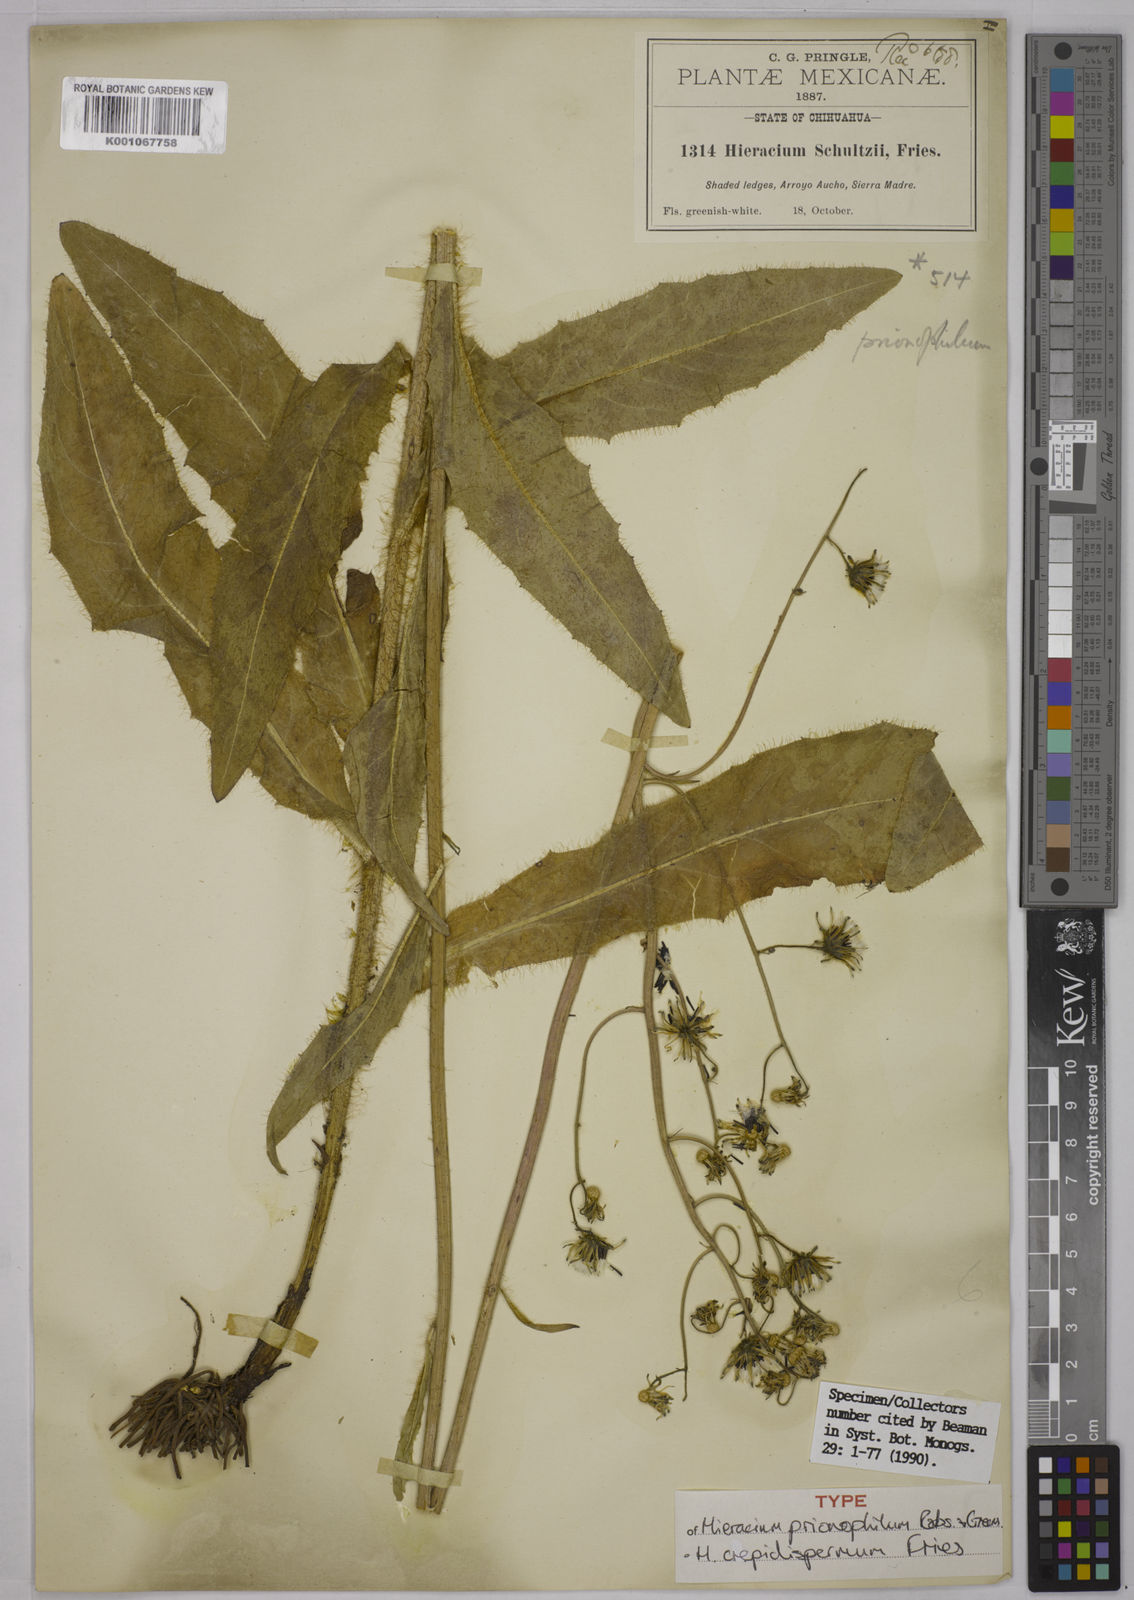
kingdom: Plantae
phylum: Tracheophyta
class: Magnoliopsida
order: Asterales
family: Asteraceae
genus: Hieracium
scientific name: Hieracium crepidispermum
